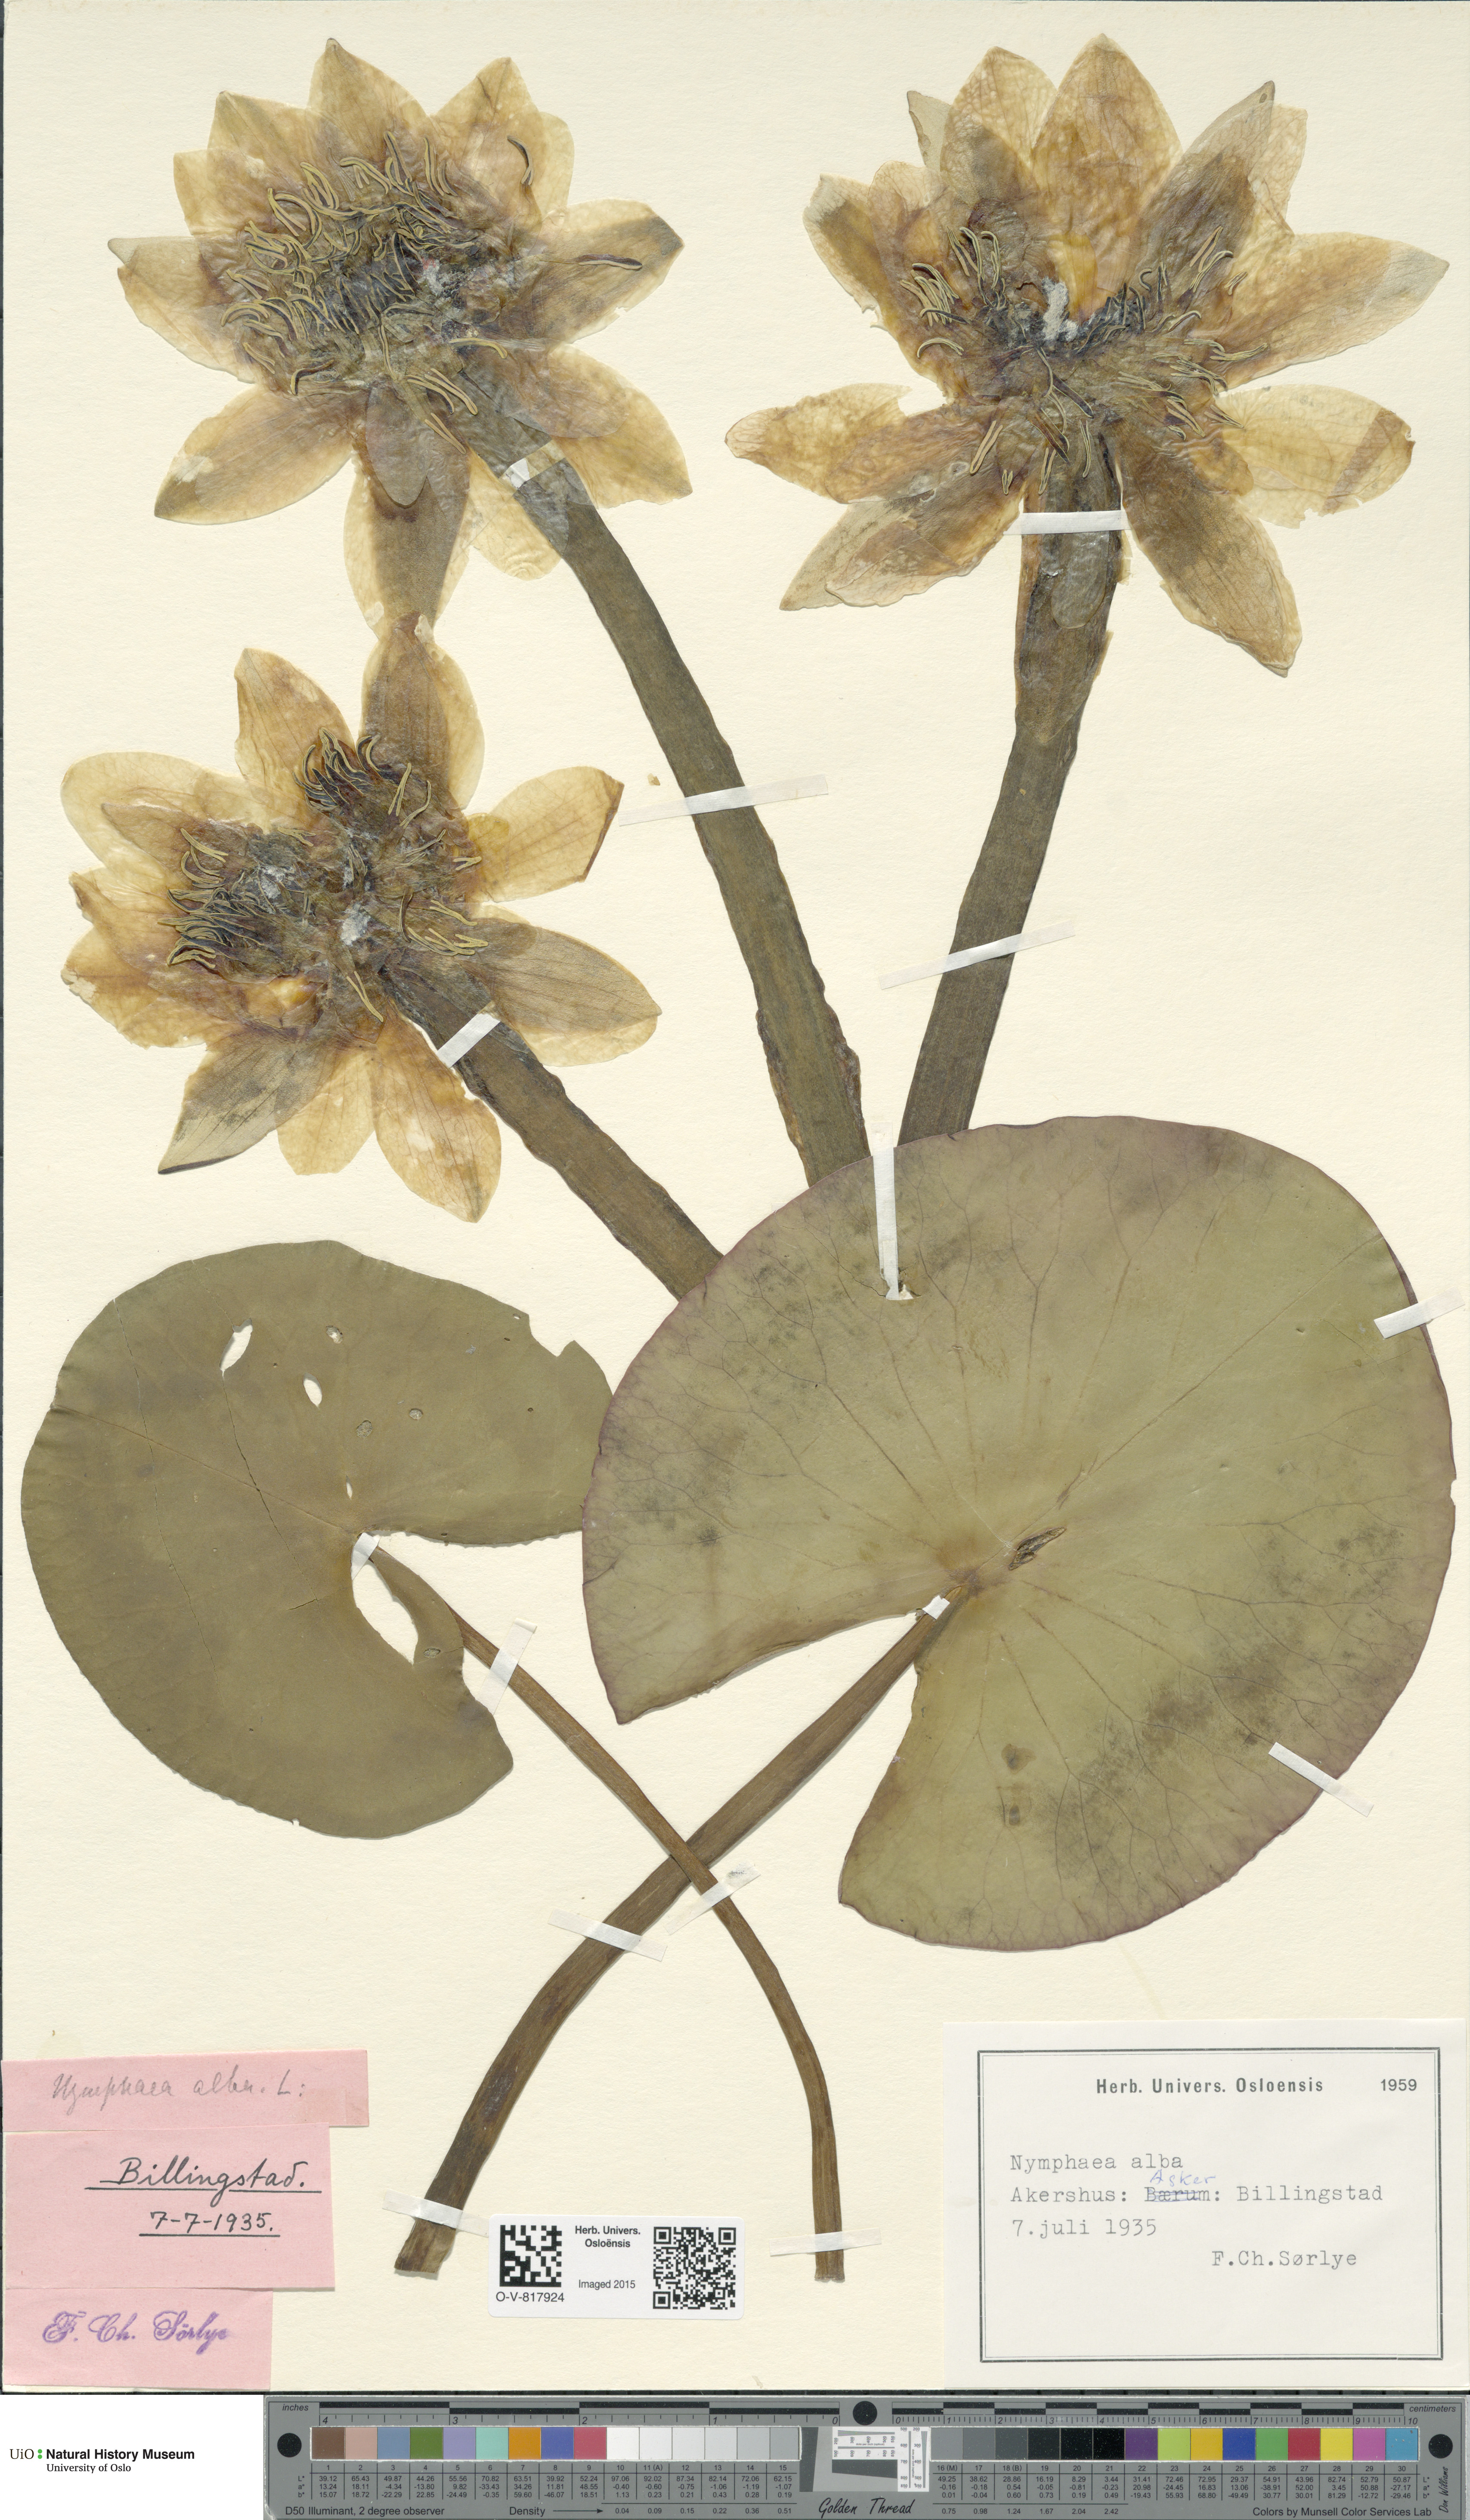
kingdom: Plantae
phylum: Tracheophyta
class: Magnoliopsida
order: Nymphaeales
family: Nymphaeaceae
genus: Nymphaea
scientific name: Nymphaea alba
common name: White water-lily
